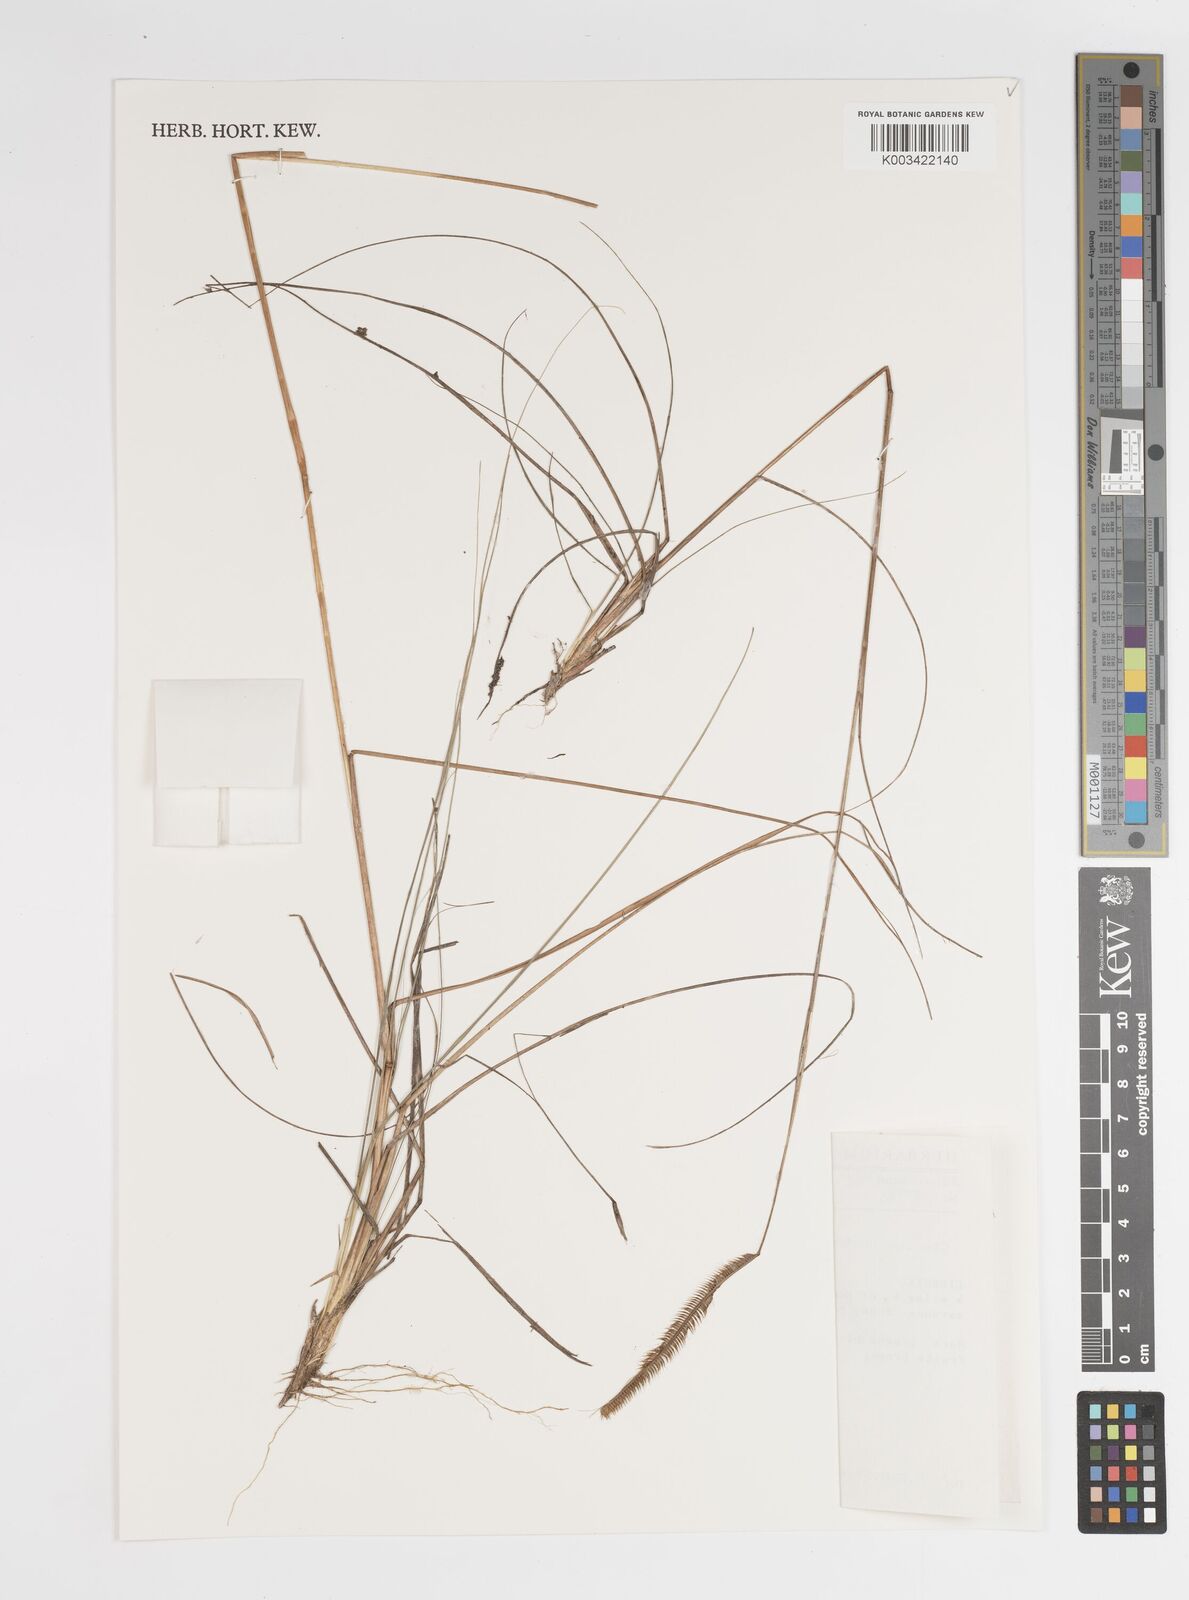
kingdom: Plantae
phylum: Tracheophyta
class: Liliopsida
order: Poales
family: Poaceae
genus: Ctenium
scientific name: Ctenium newtonii
